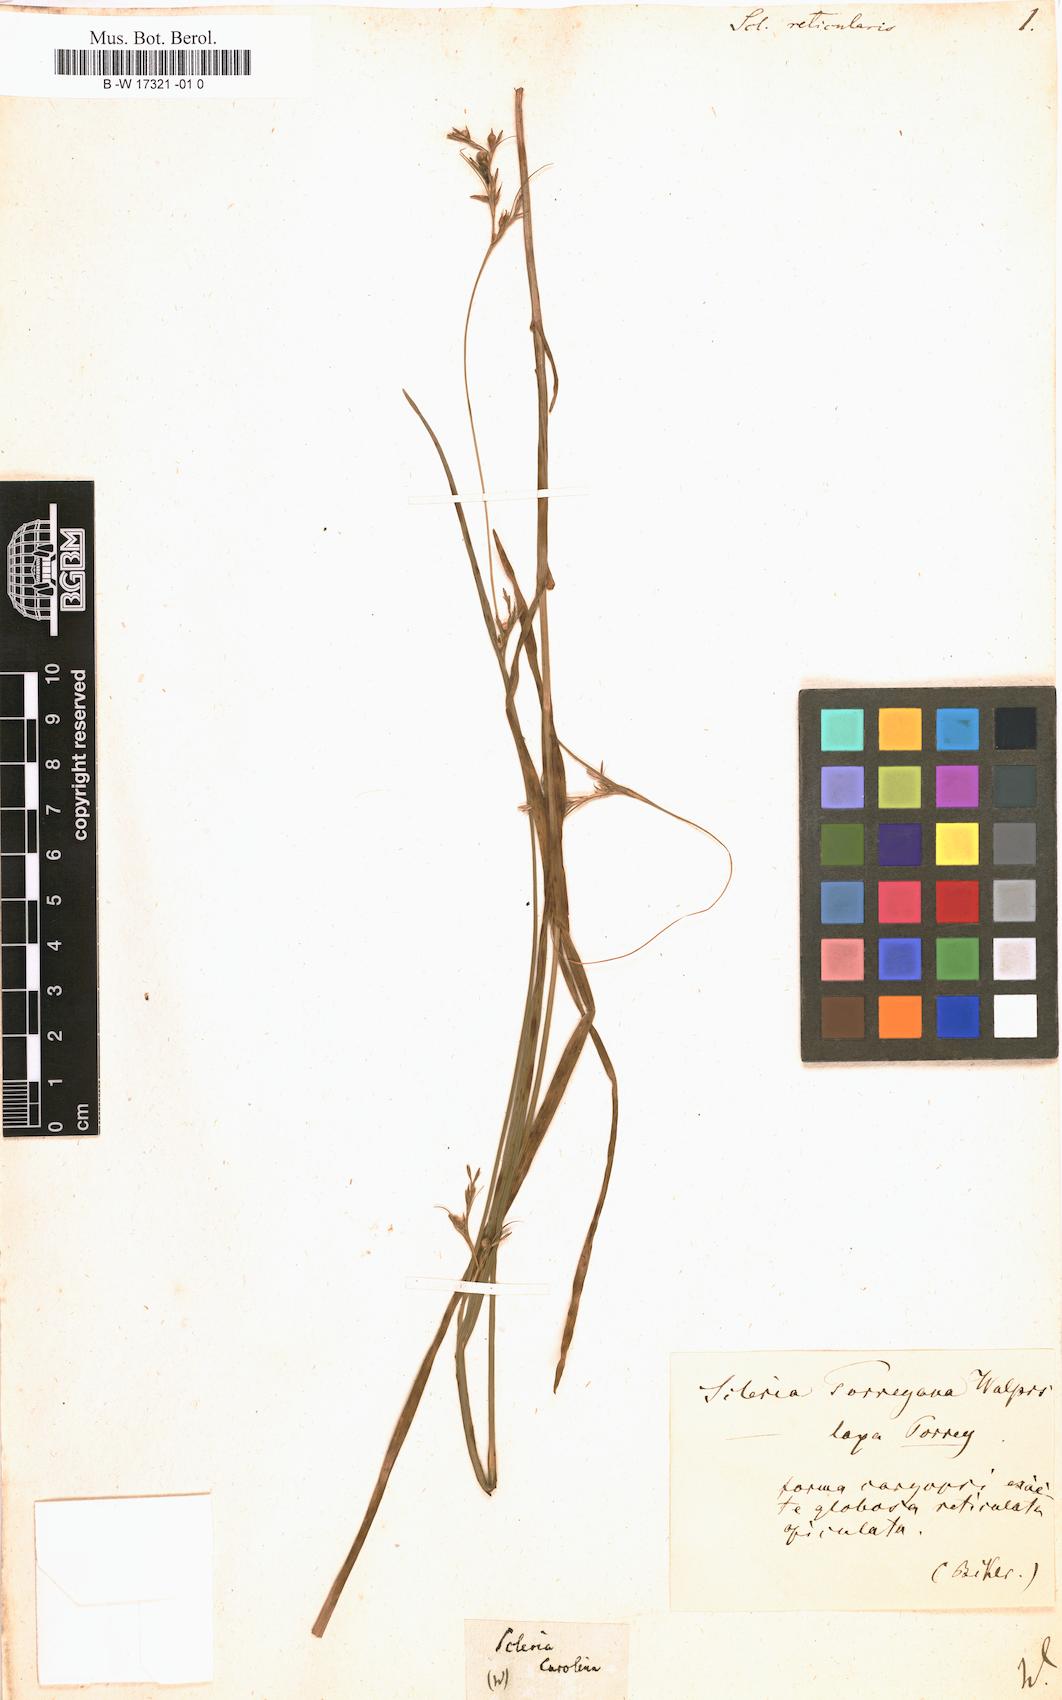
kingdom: Plantae
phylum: Tracheophyta
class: Liliopsida
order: Poales
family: Cyperaceae
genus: Scleria
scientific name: Scleria reticularis
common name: Netted nutrush
